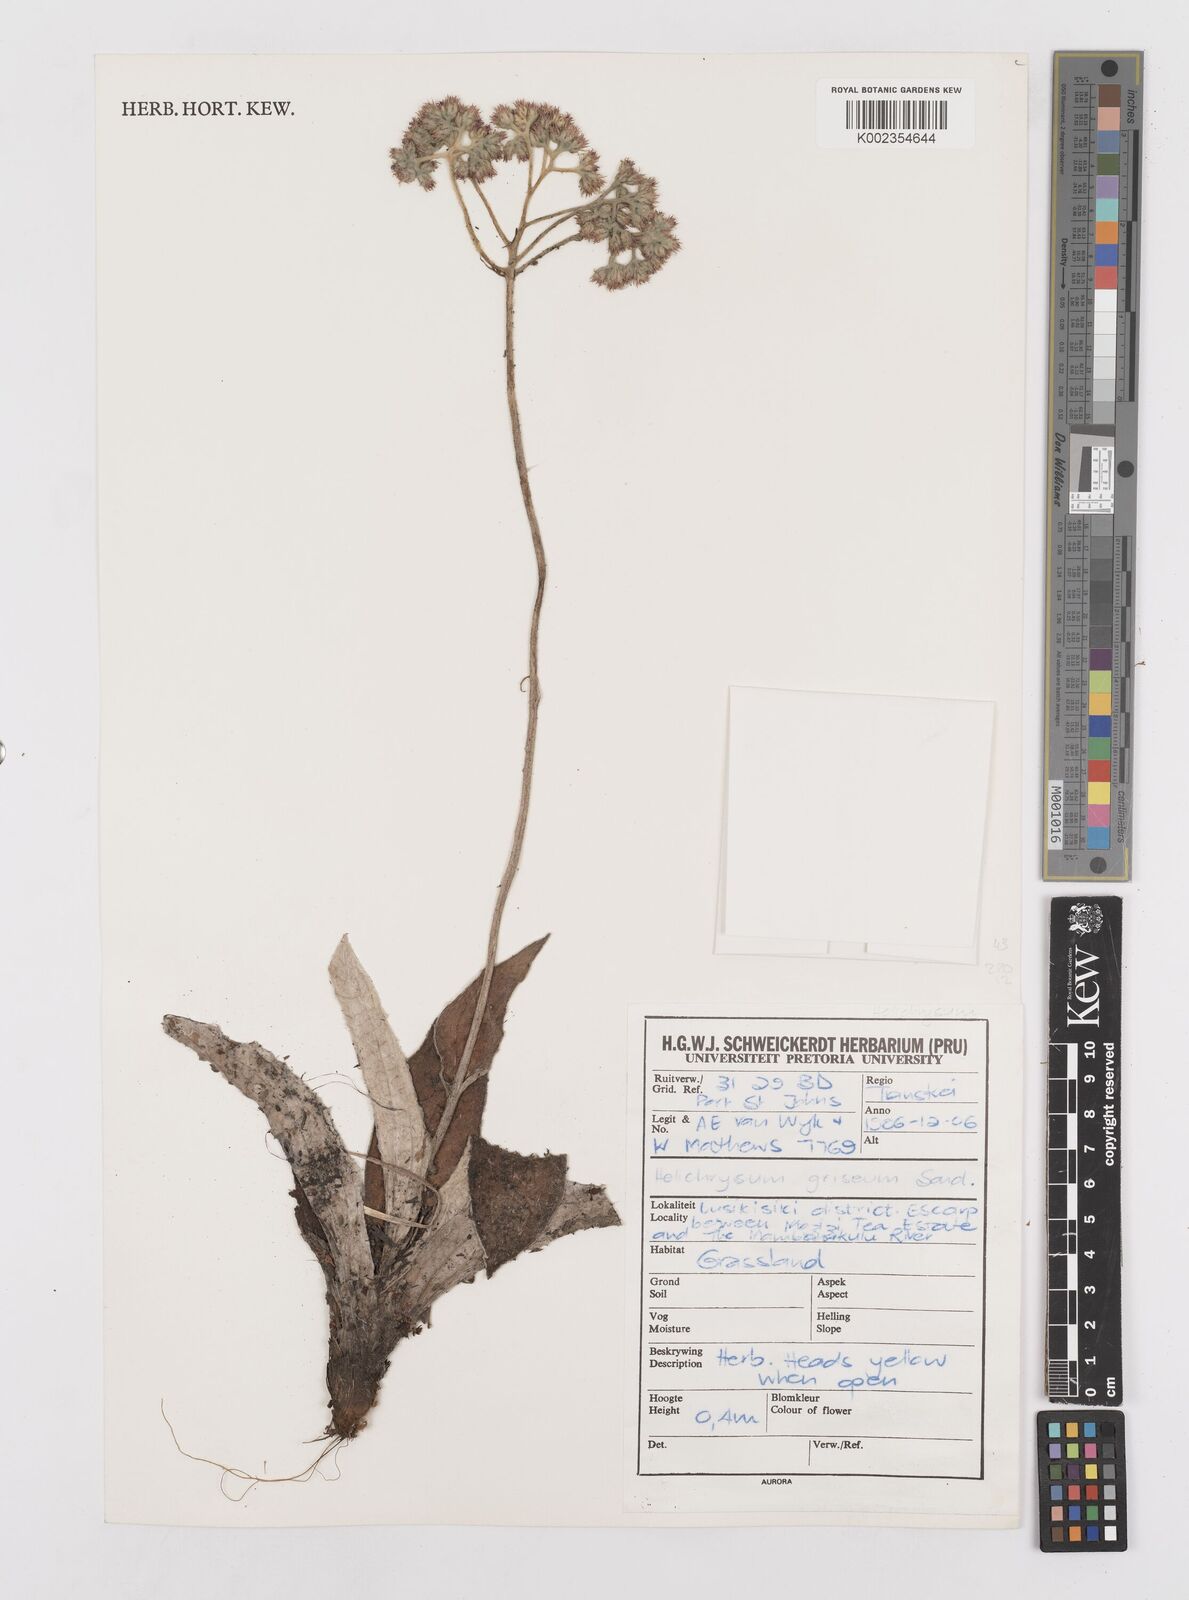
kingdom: Plantae
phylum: Tracheophyta
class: Magnoliopsida
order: Asterales
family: Asteraceae
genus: Helichrysum
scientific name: Helichrysum griseum
